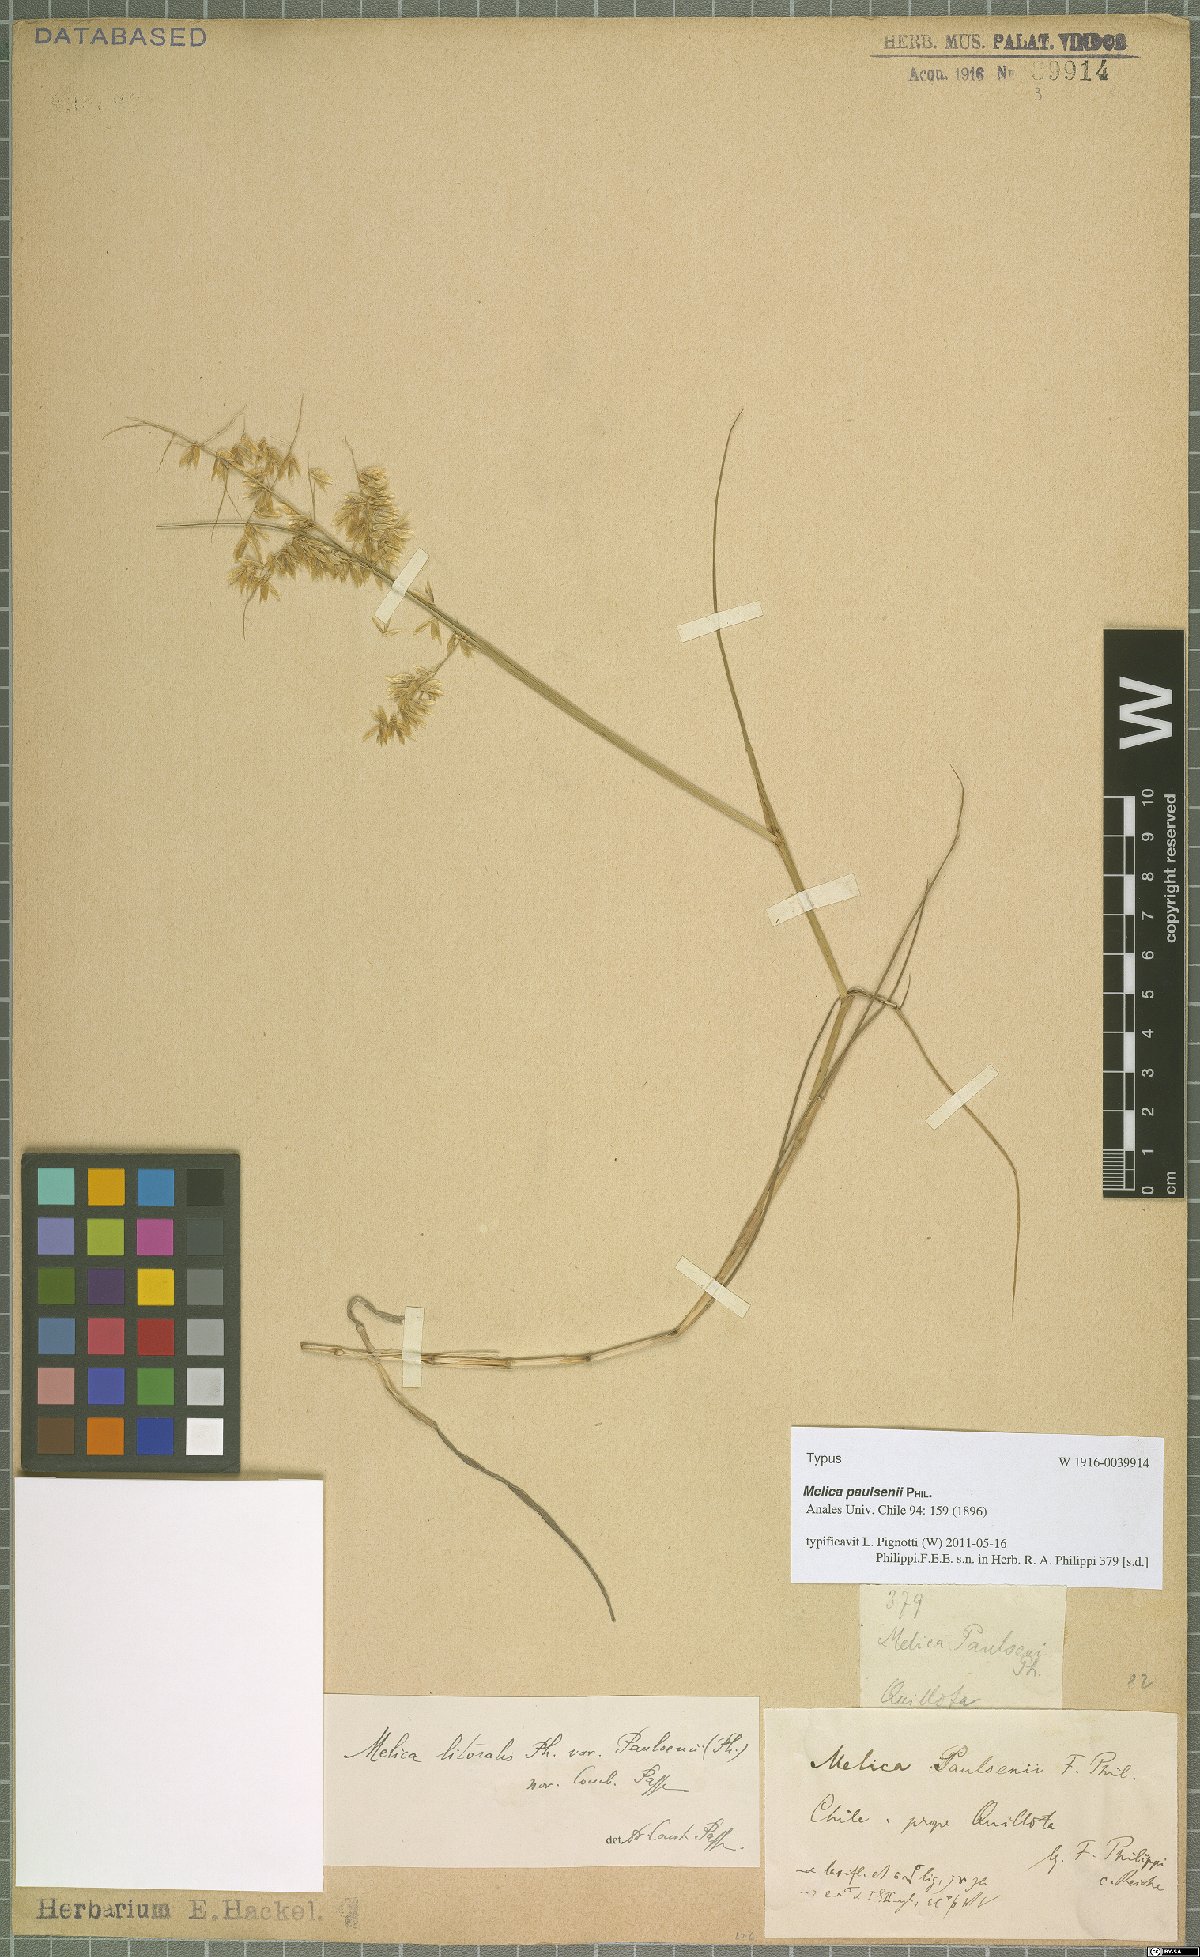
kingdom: Plantae
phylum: Tracheophyta
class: Liliopsida
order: Poales
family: Poaceae
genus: Melica
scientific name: Melica paulsenii
